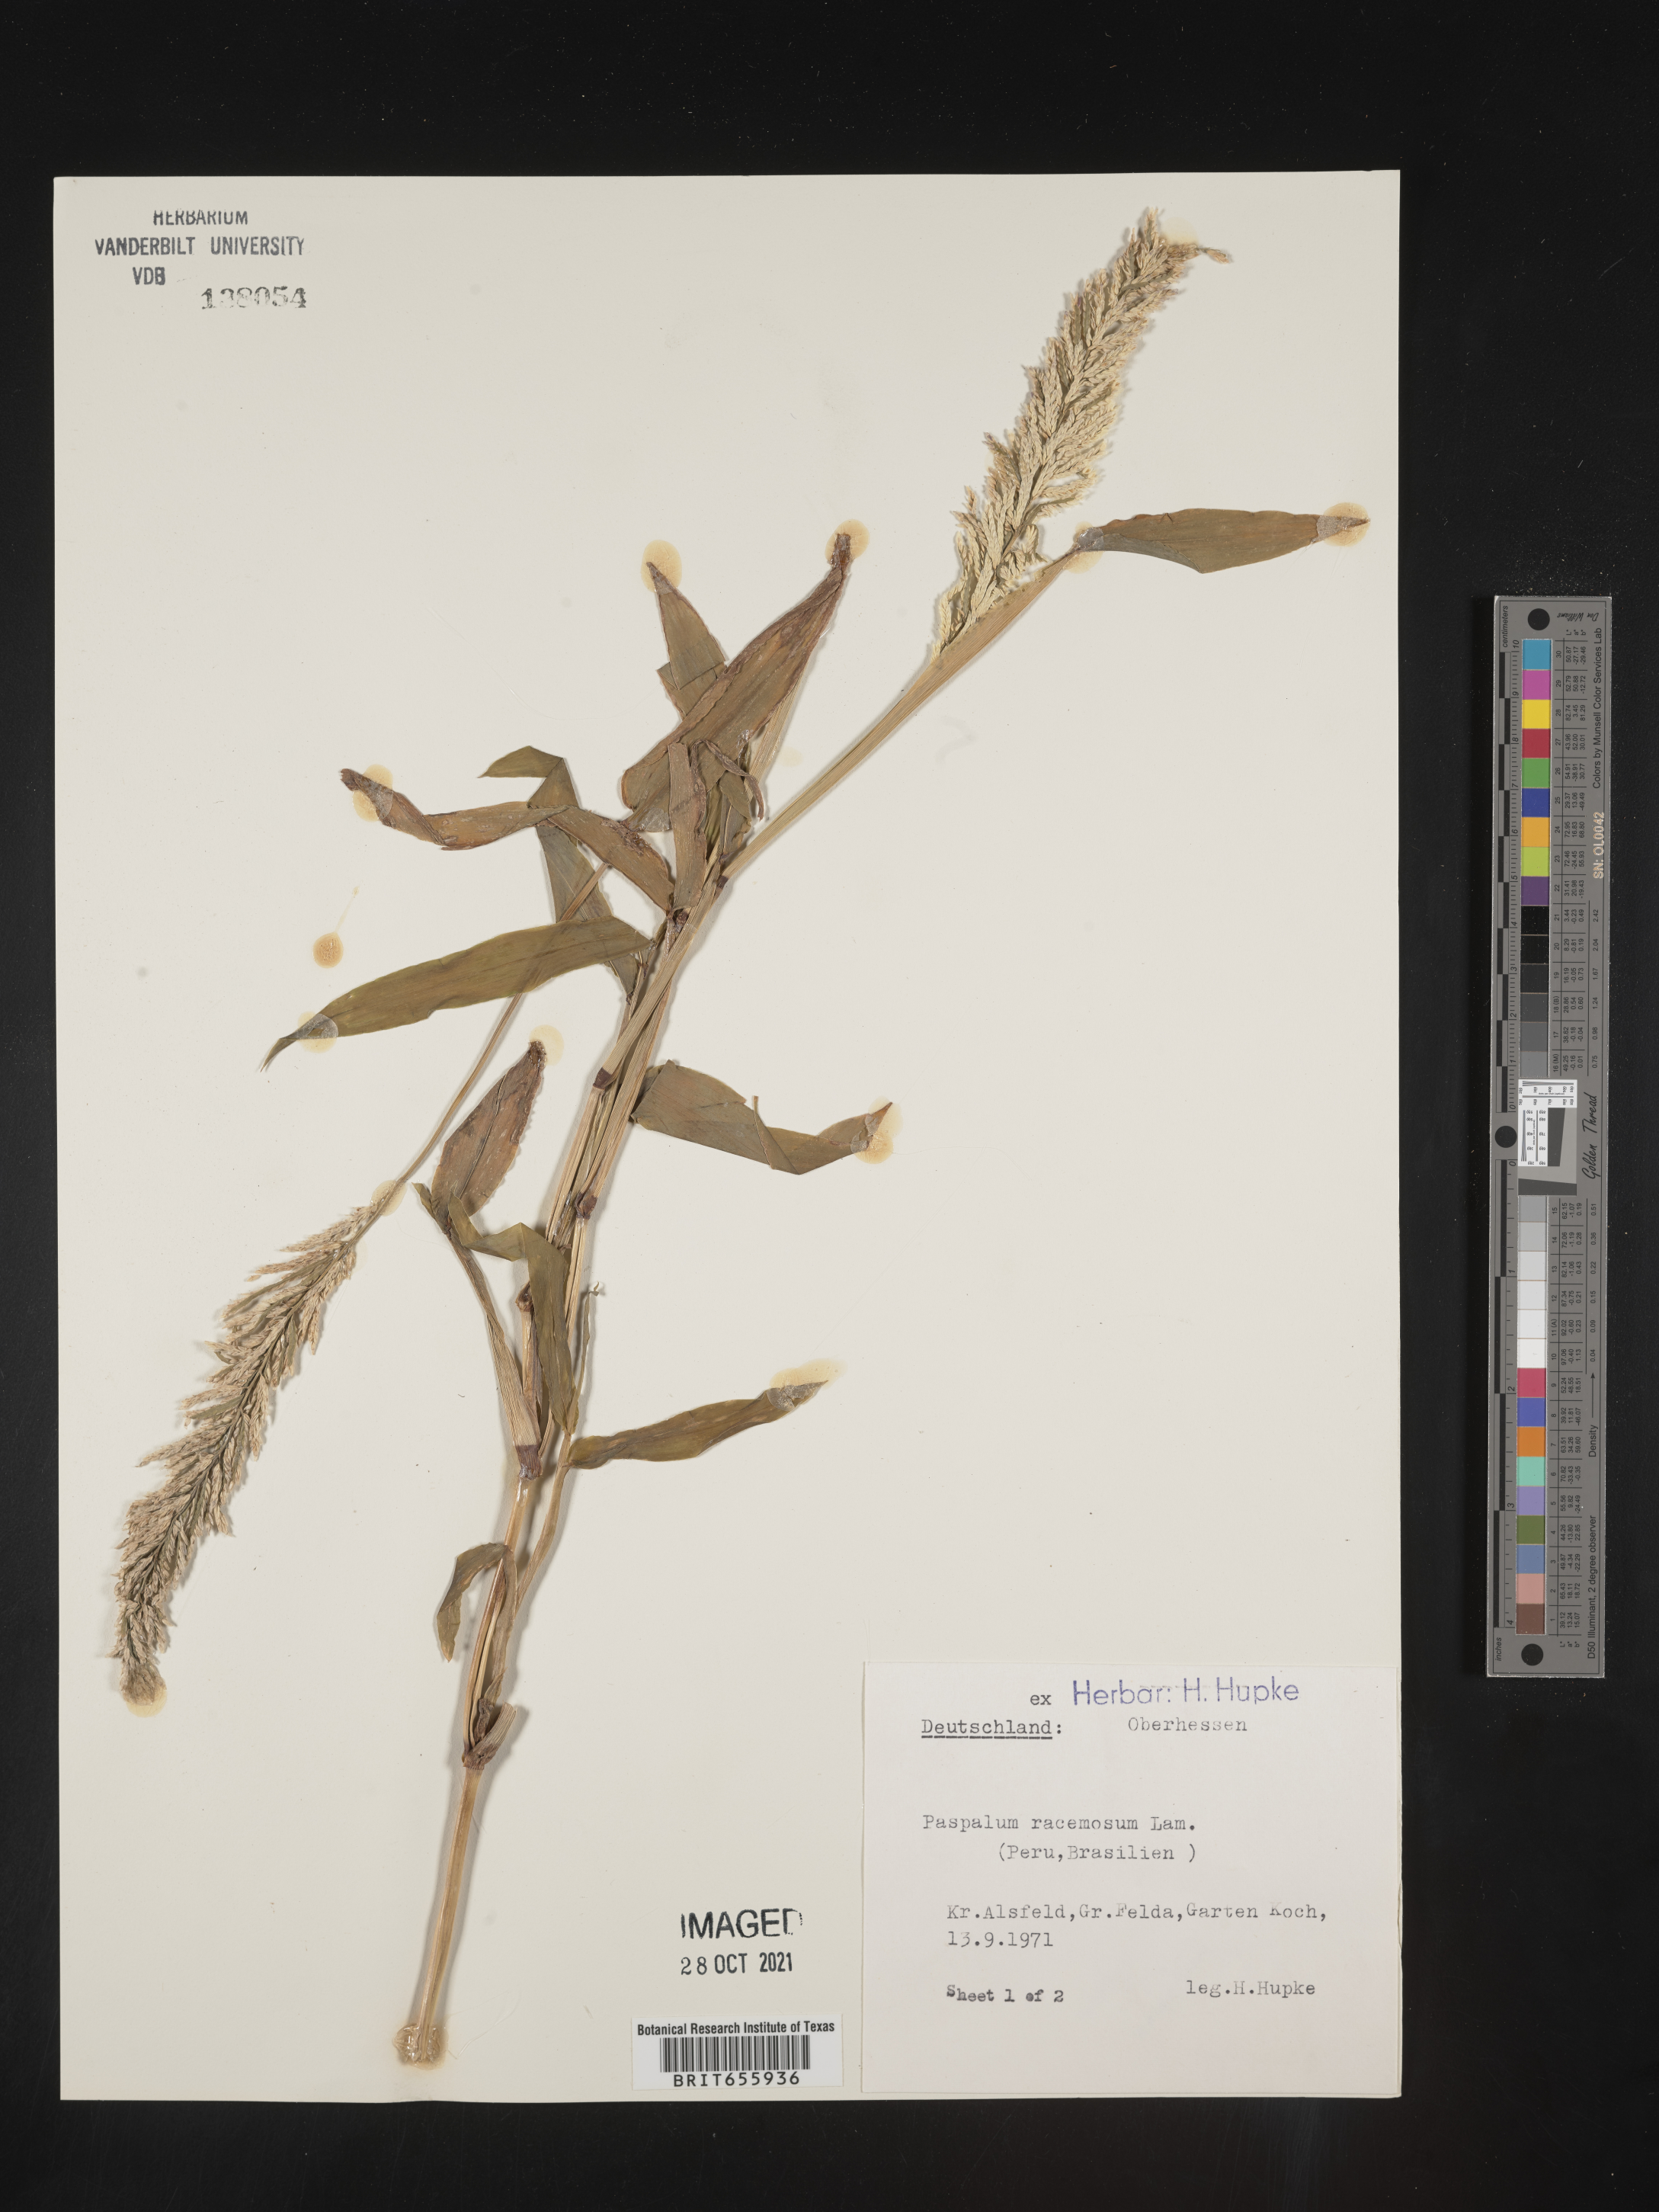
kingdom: Plantae
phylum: Tracheophyta
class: Liliopsida
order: Poales
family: Poaceae
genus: Paspalum
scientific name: Paspalum
